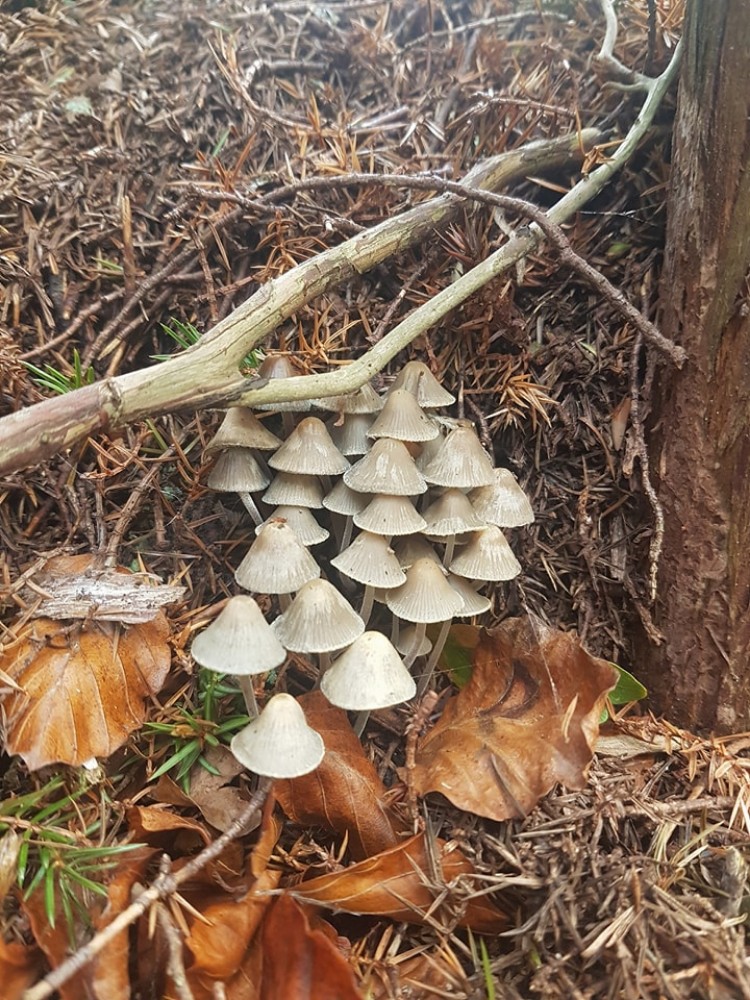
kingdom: Fungi
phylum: Basidiomycota
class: Agaricomycetes
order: Agaricales
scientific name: Agaricales
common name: champignonordenen
